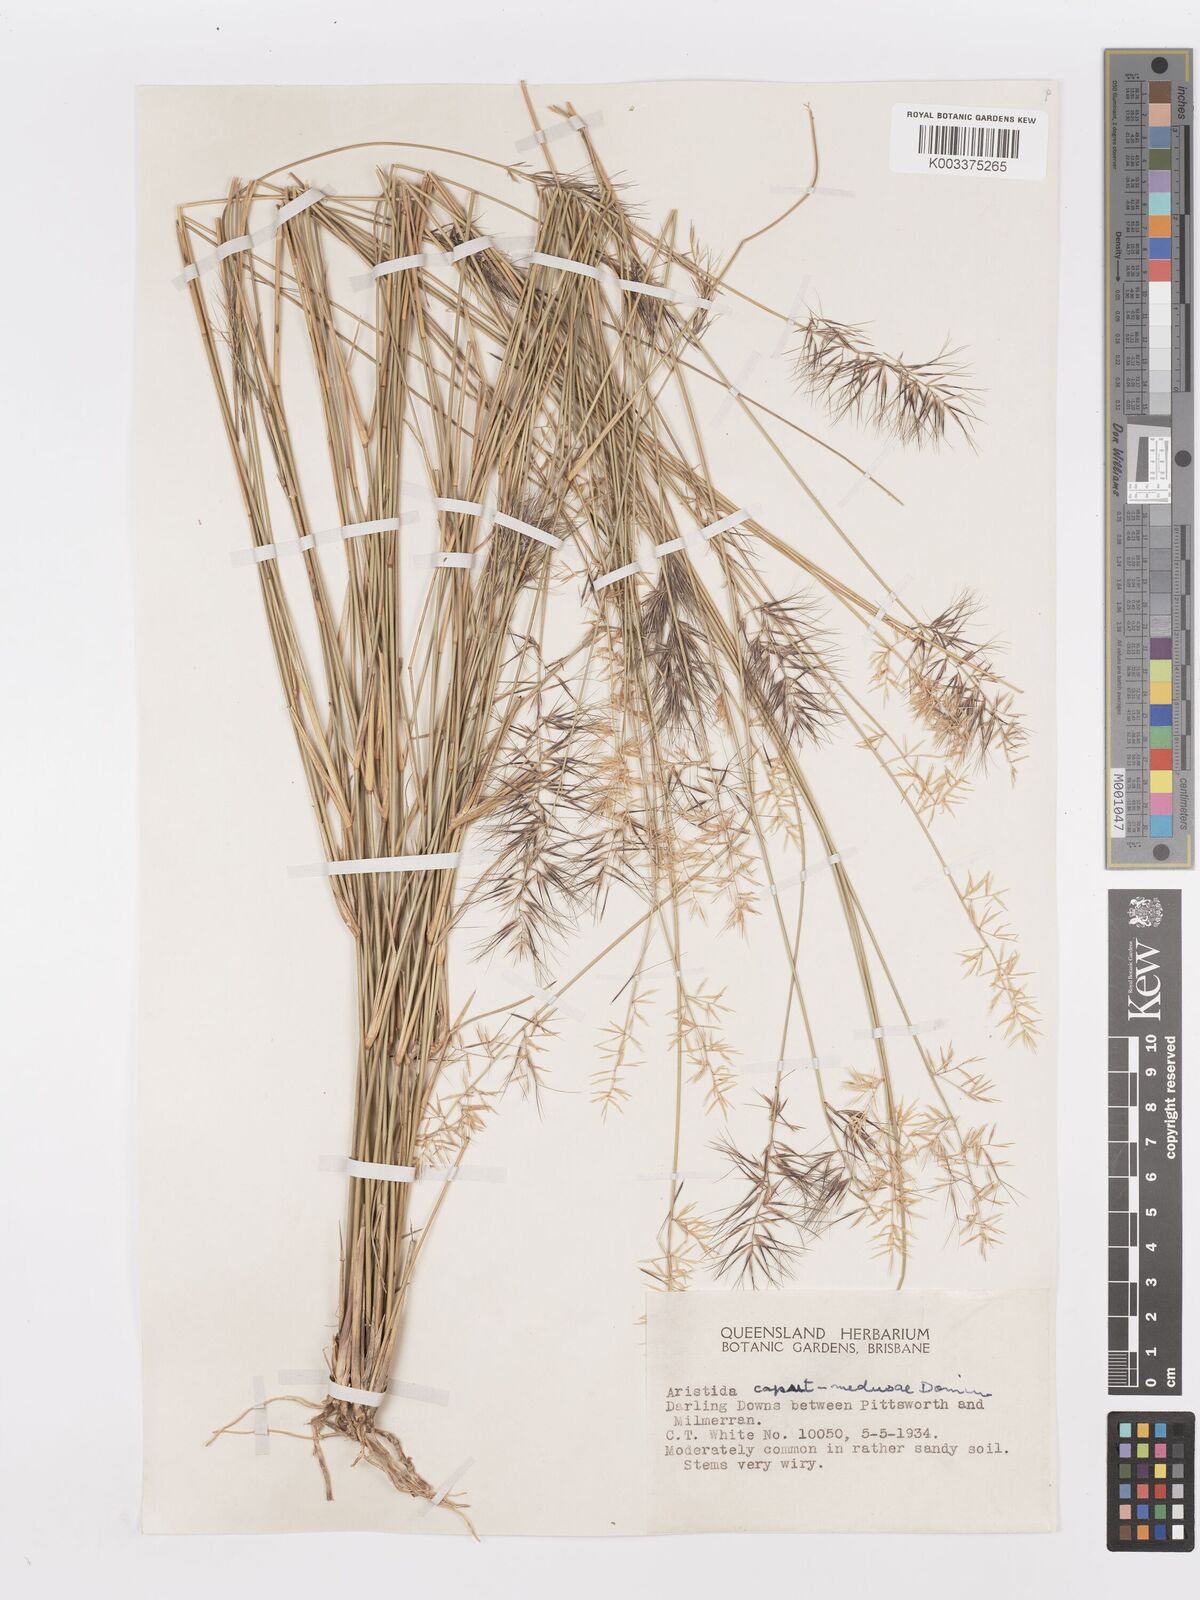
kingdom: Plantae
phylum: Tracheophyta
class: Liliopsida
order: Poales
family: Poaceae
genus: Aristida
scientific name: Aristida caput-medusae
